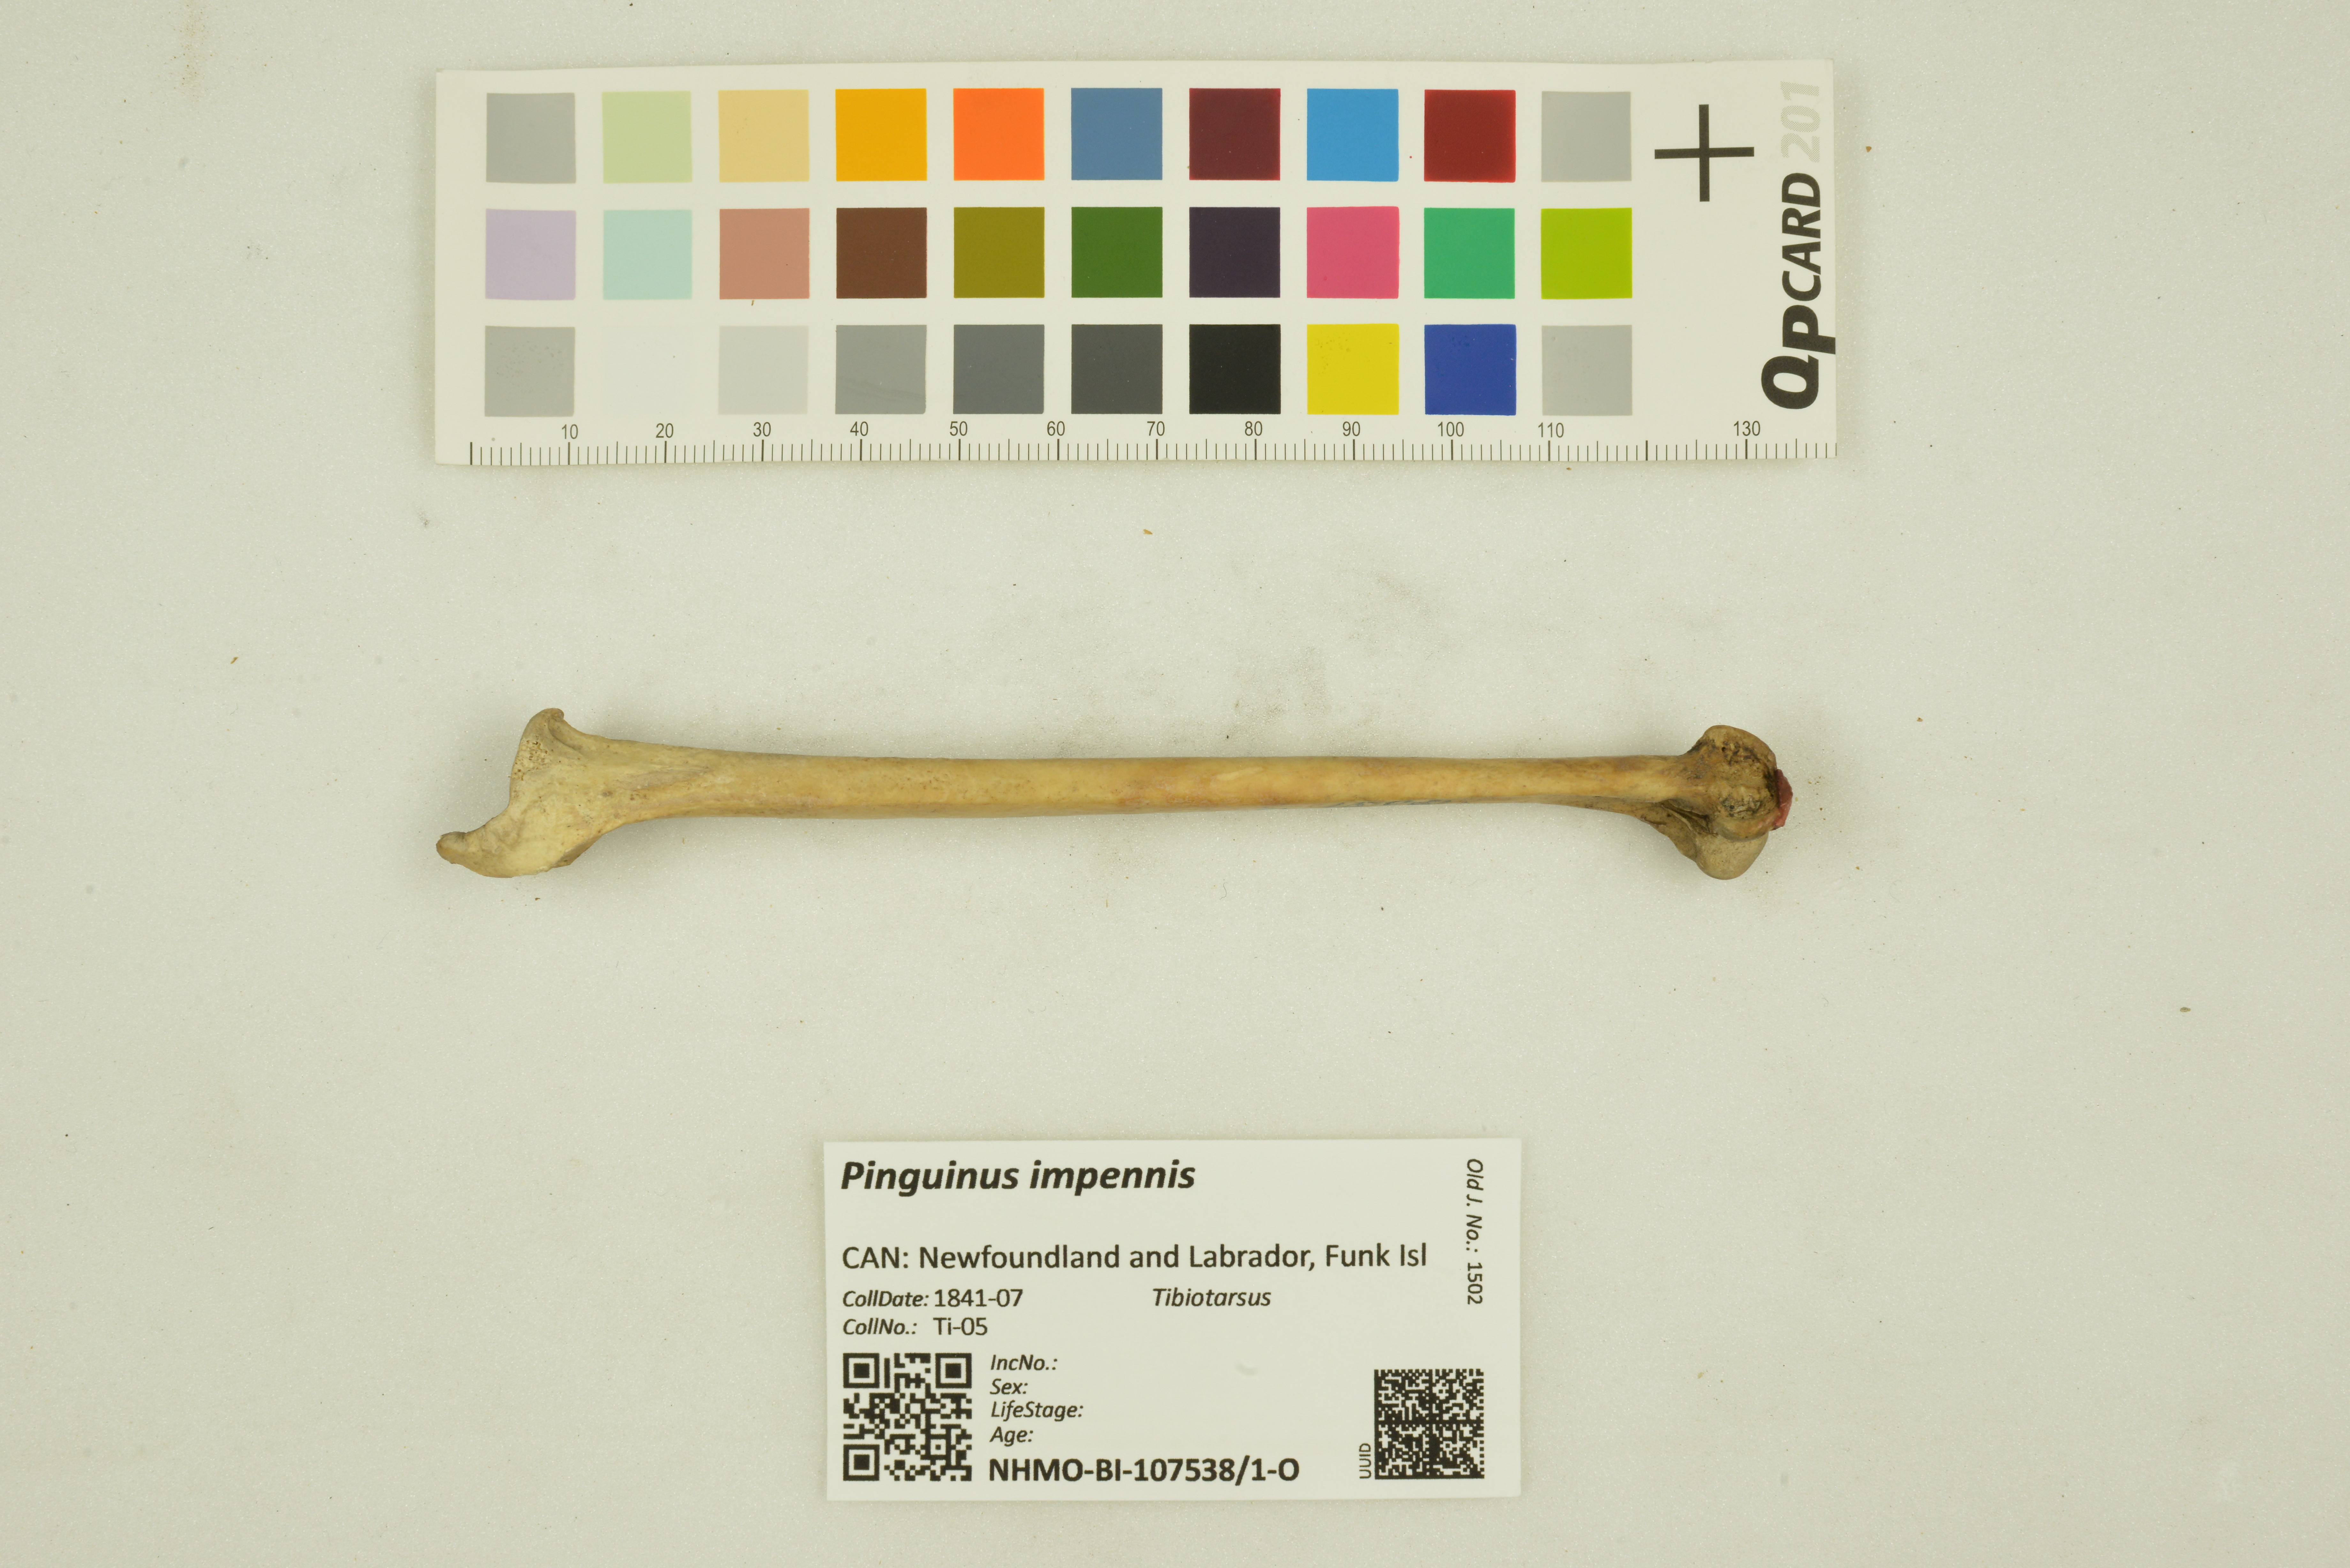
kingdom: Animalia
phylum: Chordata
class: Aves
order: Charadriiformes
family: Alcidae
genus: Pinguinus
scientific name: Pinguinus impennis
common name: Great auk
